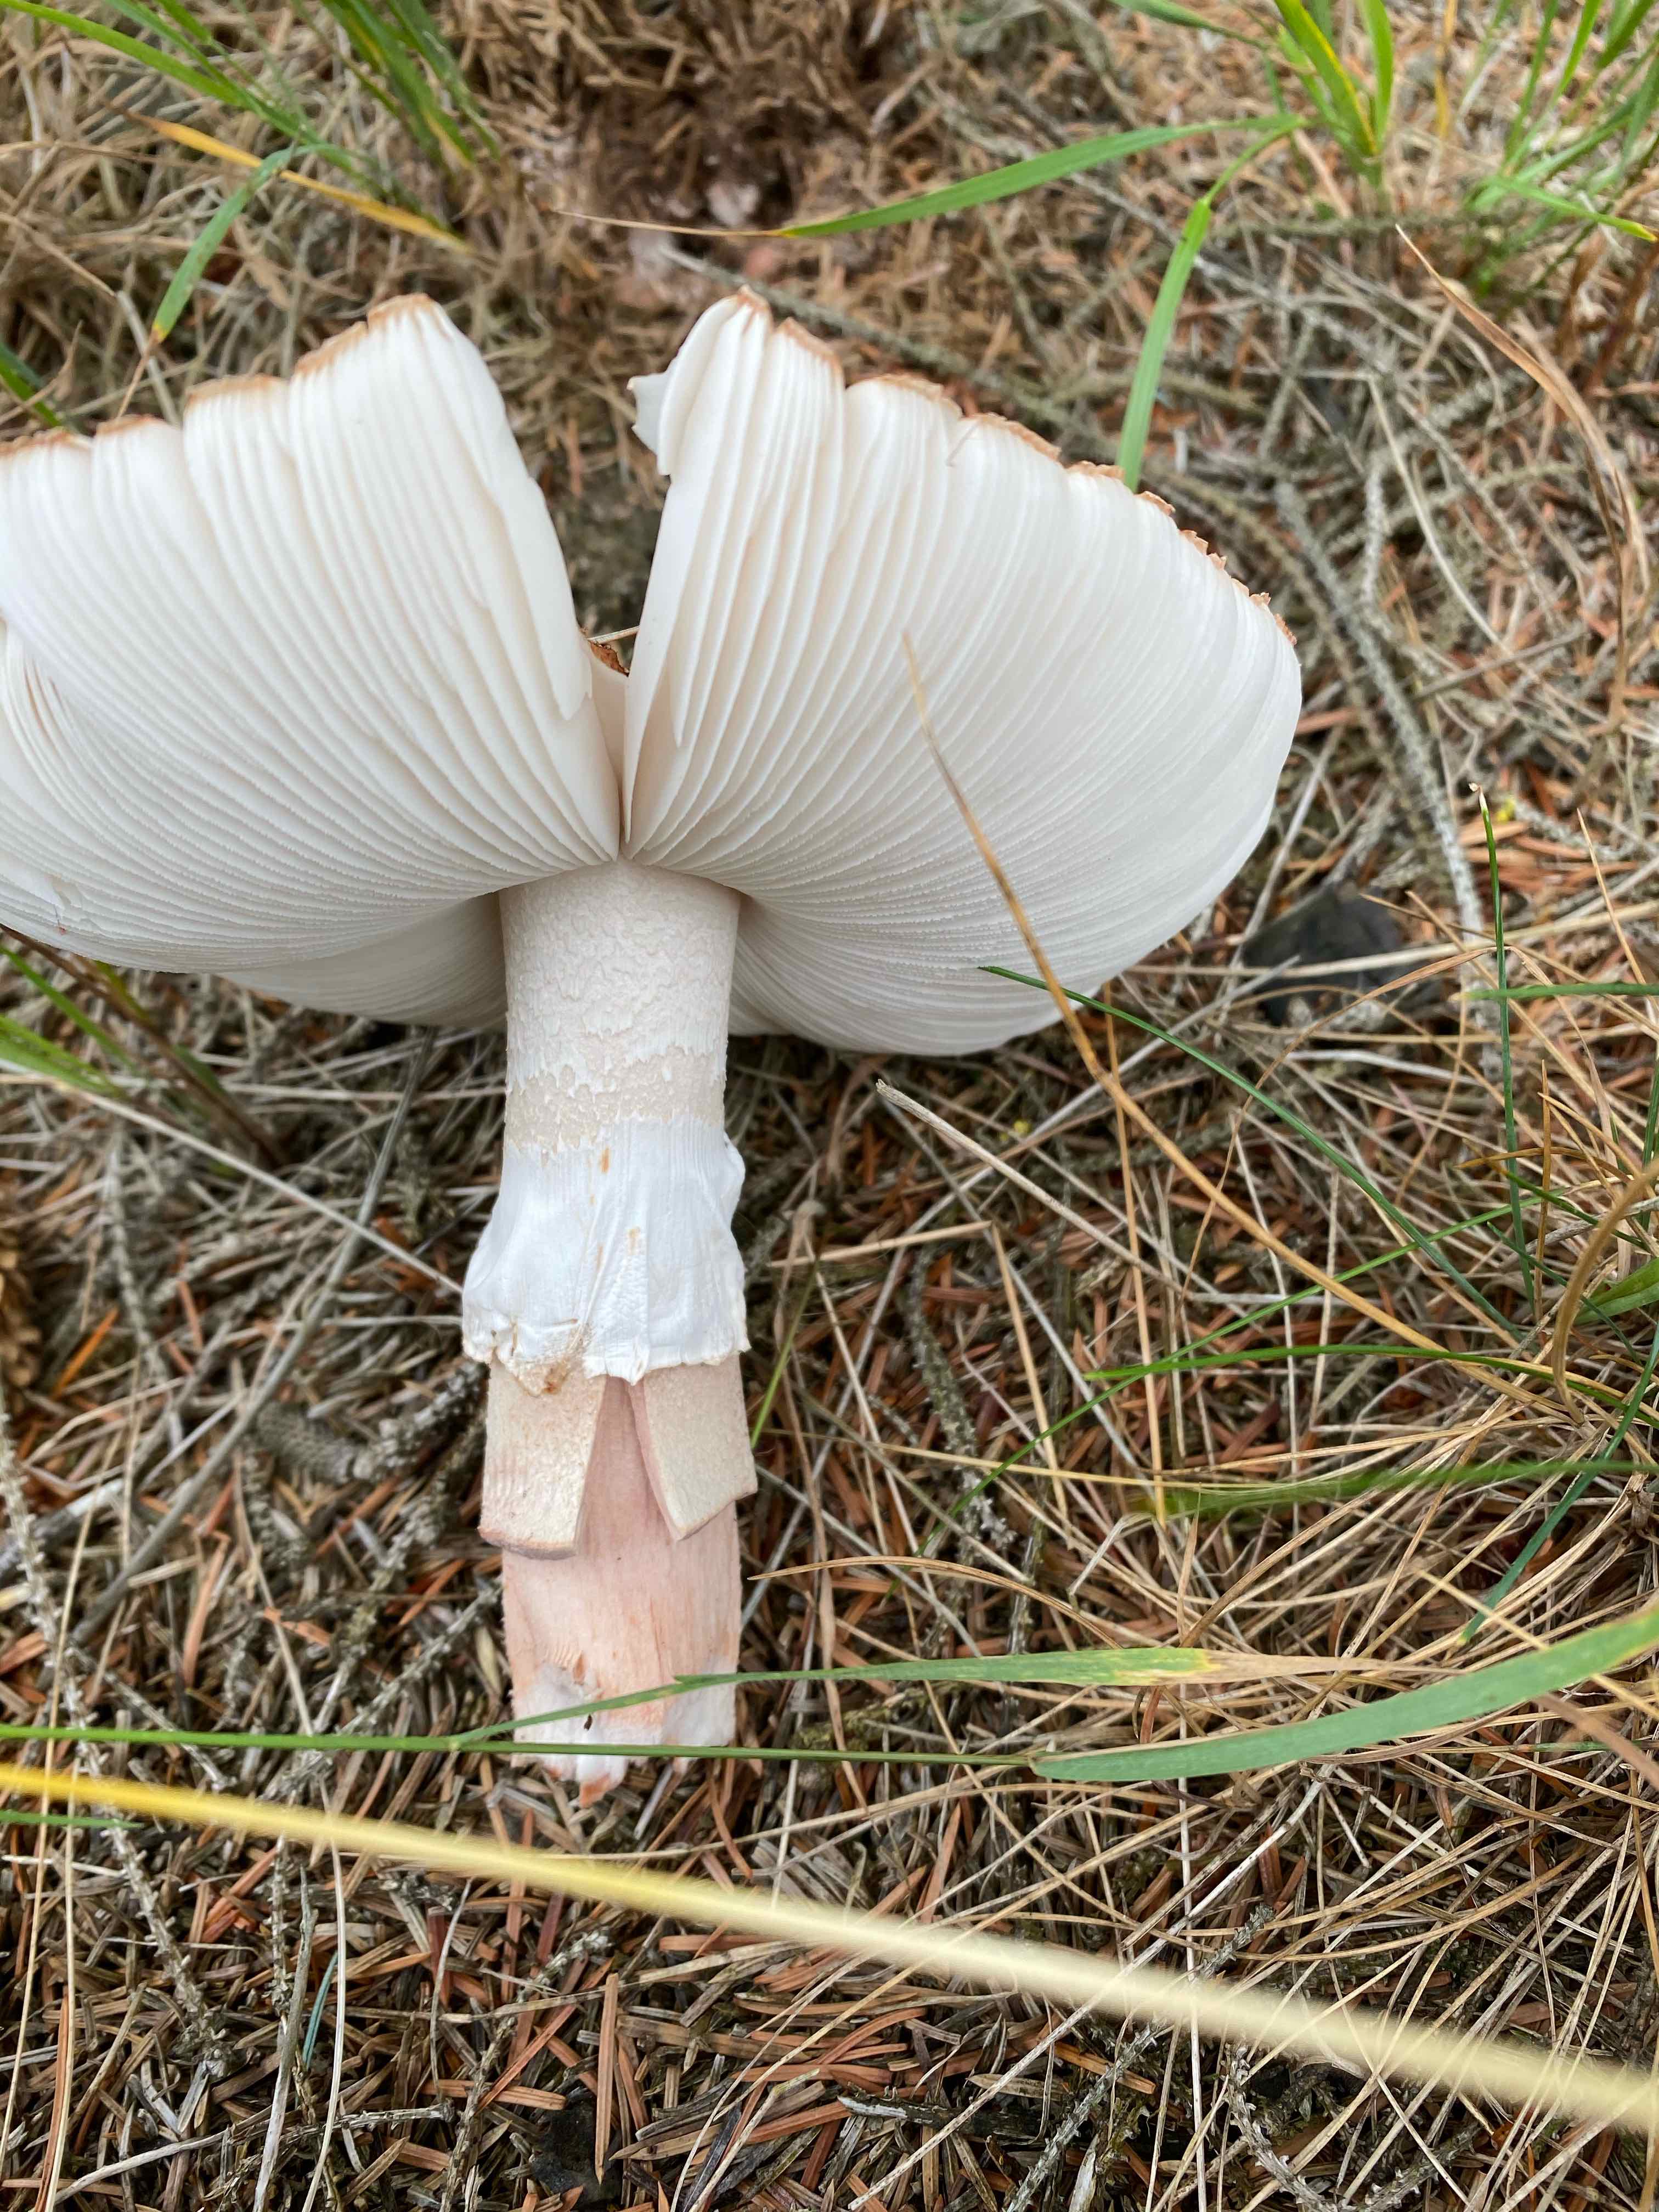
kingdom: Fungi
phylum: Basidiomycota
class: Agaricomycetes
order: Agaricales
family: Amanitaceae
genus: Amanita
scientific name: Amanita rubescens
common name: rødmende fluesvamp
